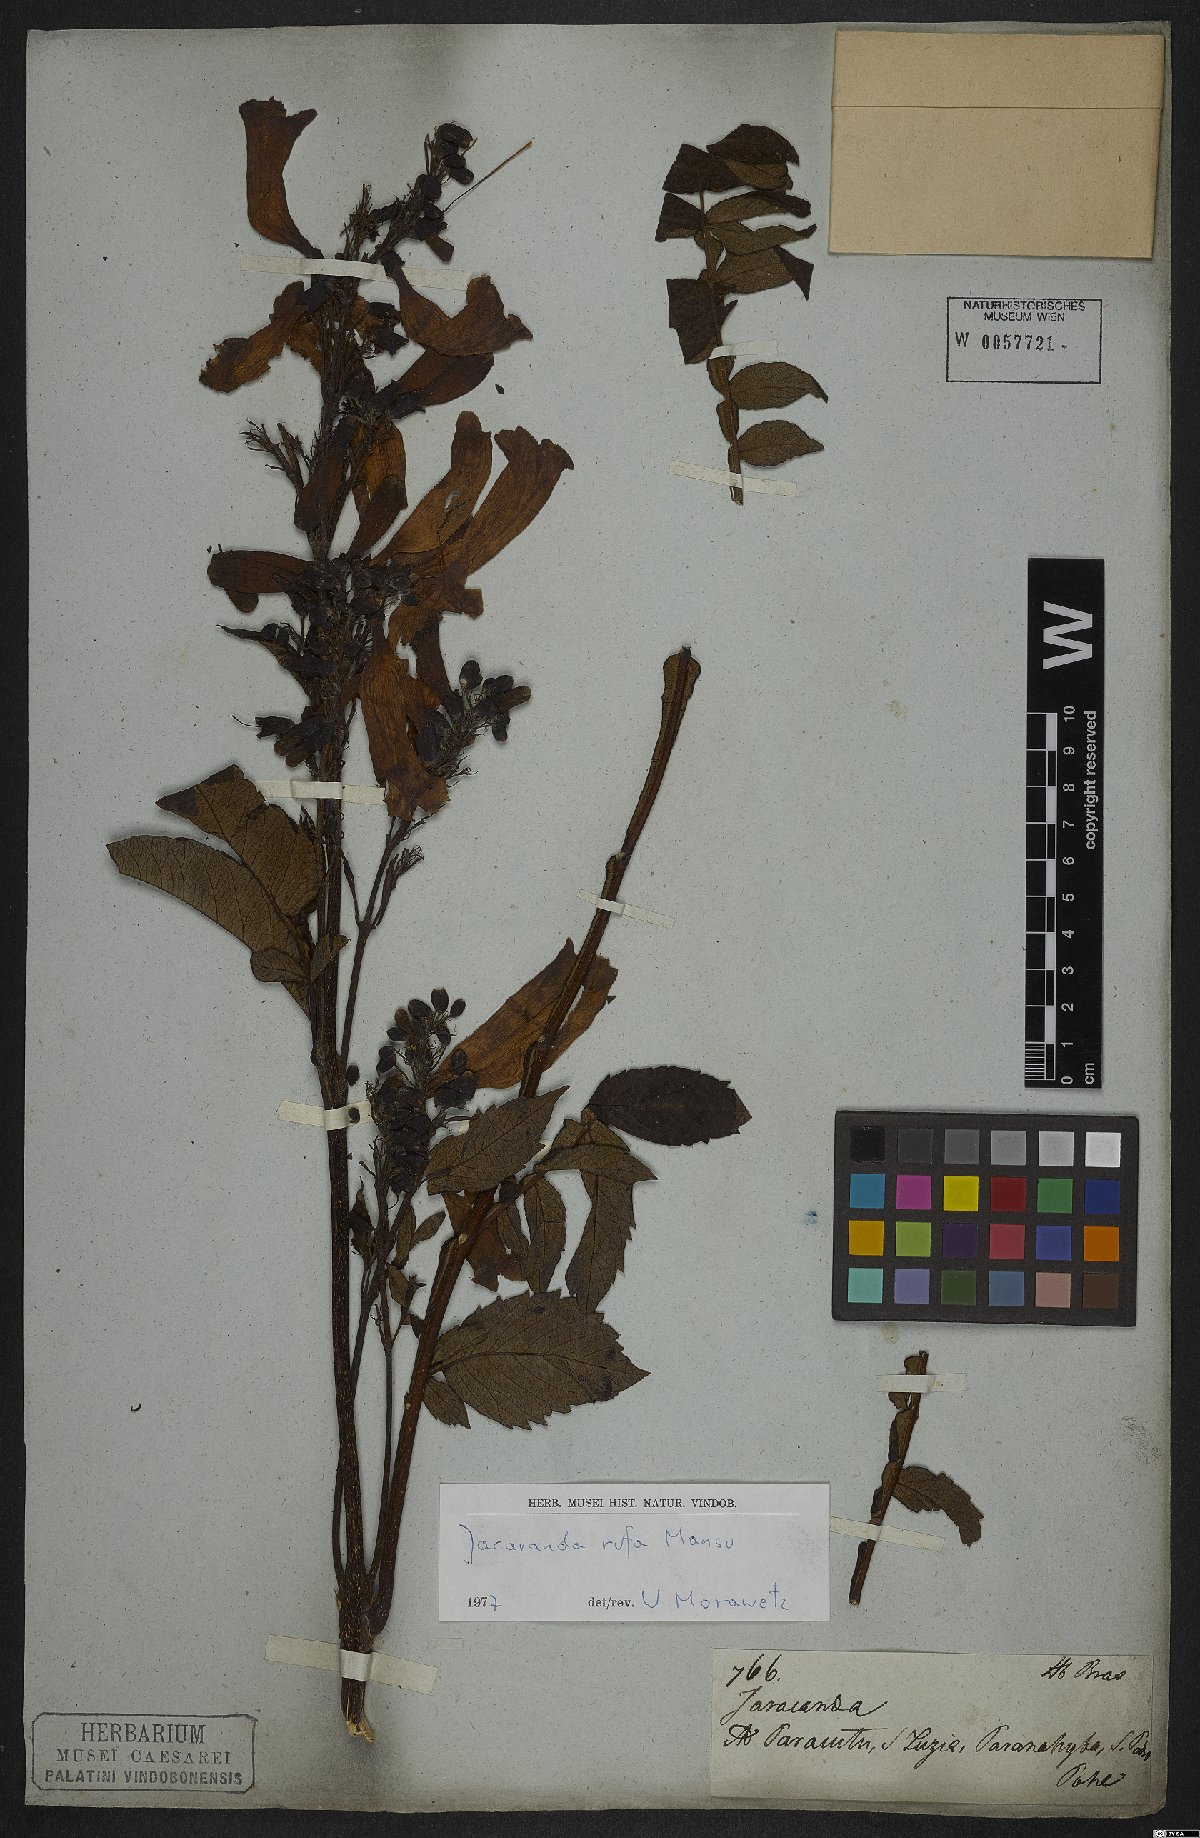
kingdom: Plantae
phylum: Tracheophyta
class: Magnoliopsida
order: Lamiales
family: Bignoniaceae
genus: Jacaranda
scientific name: Jacaranda rufa
